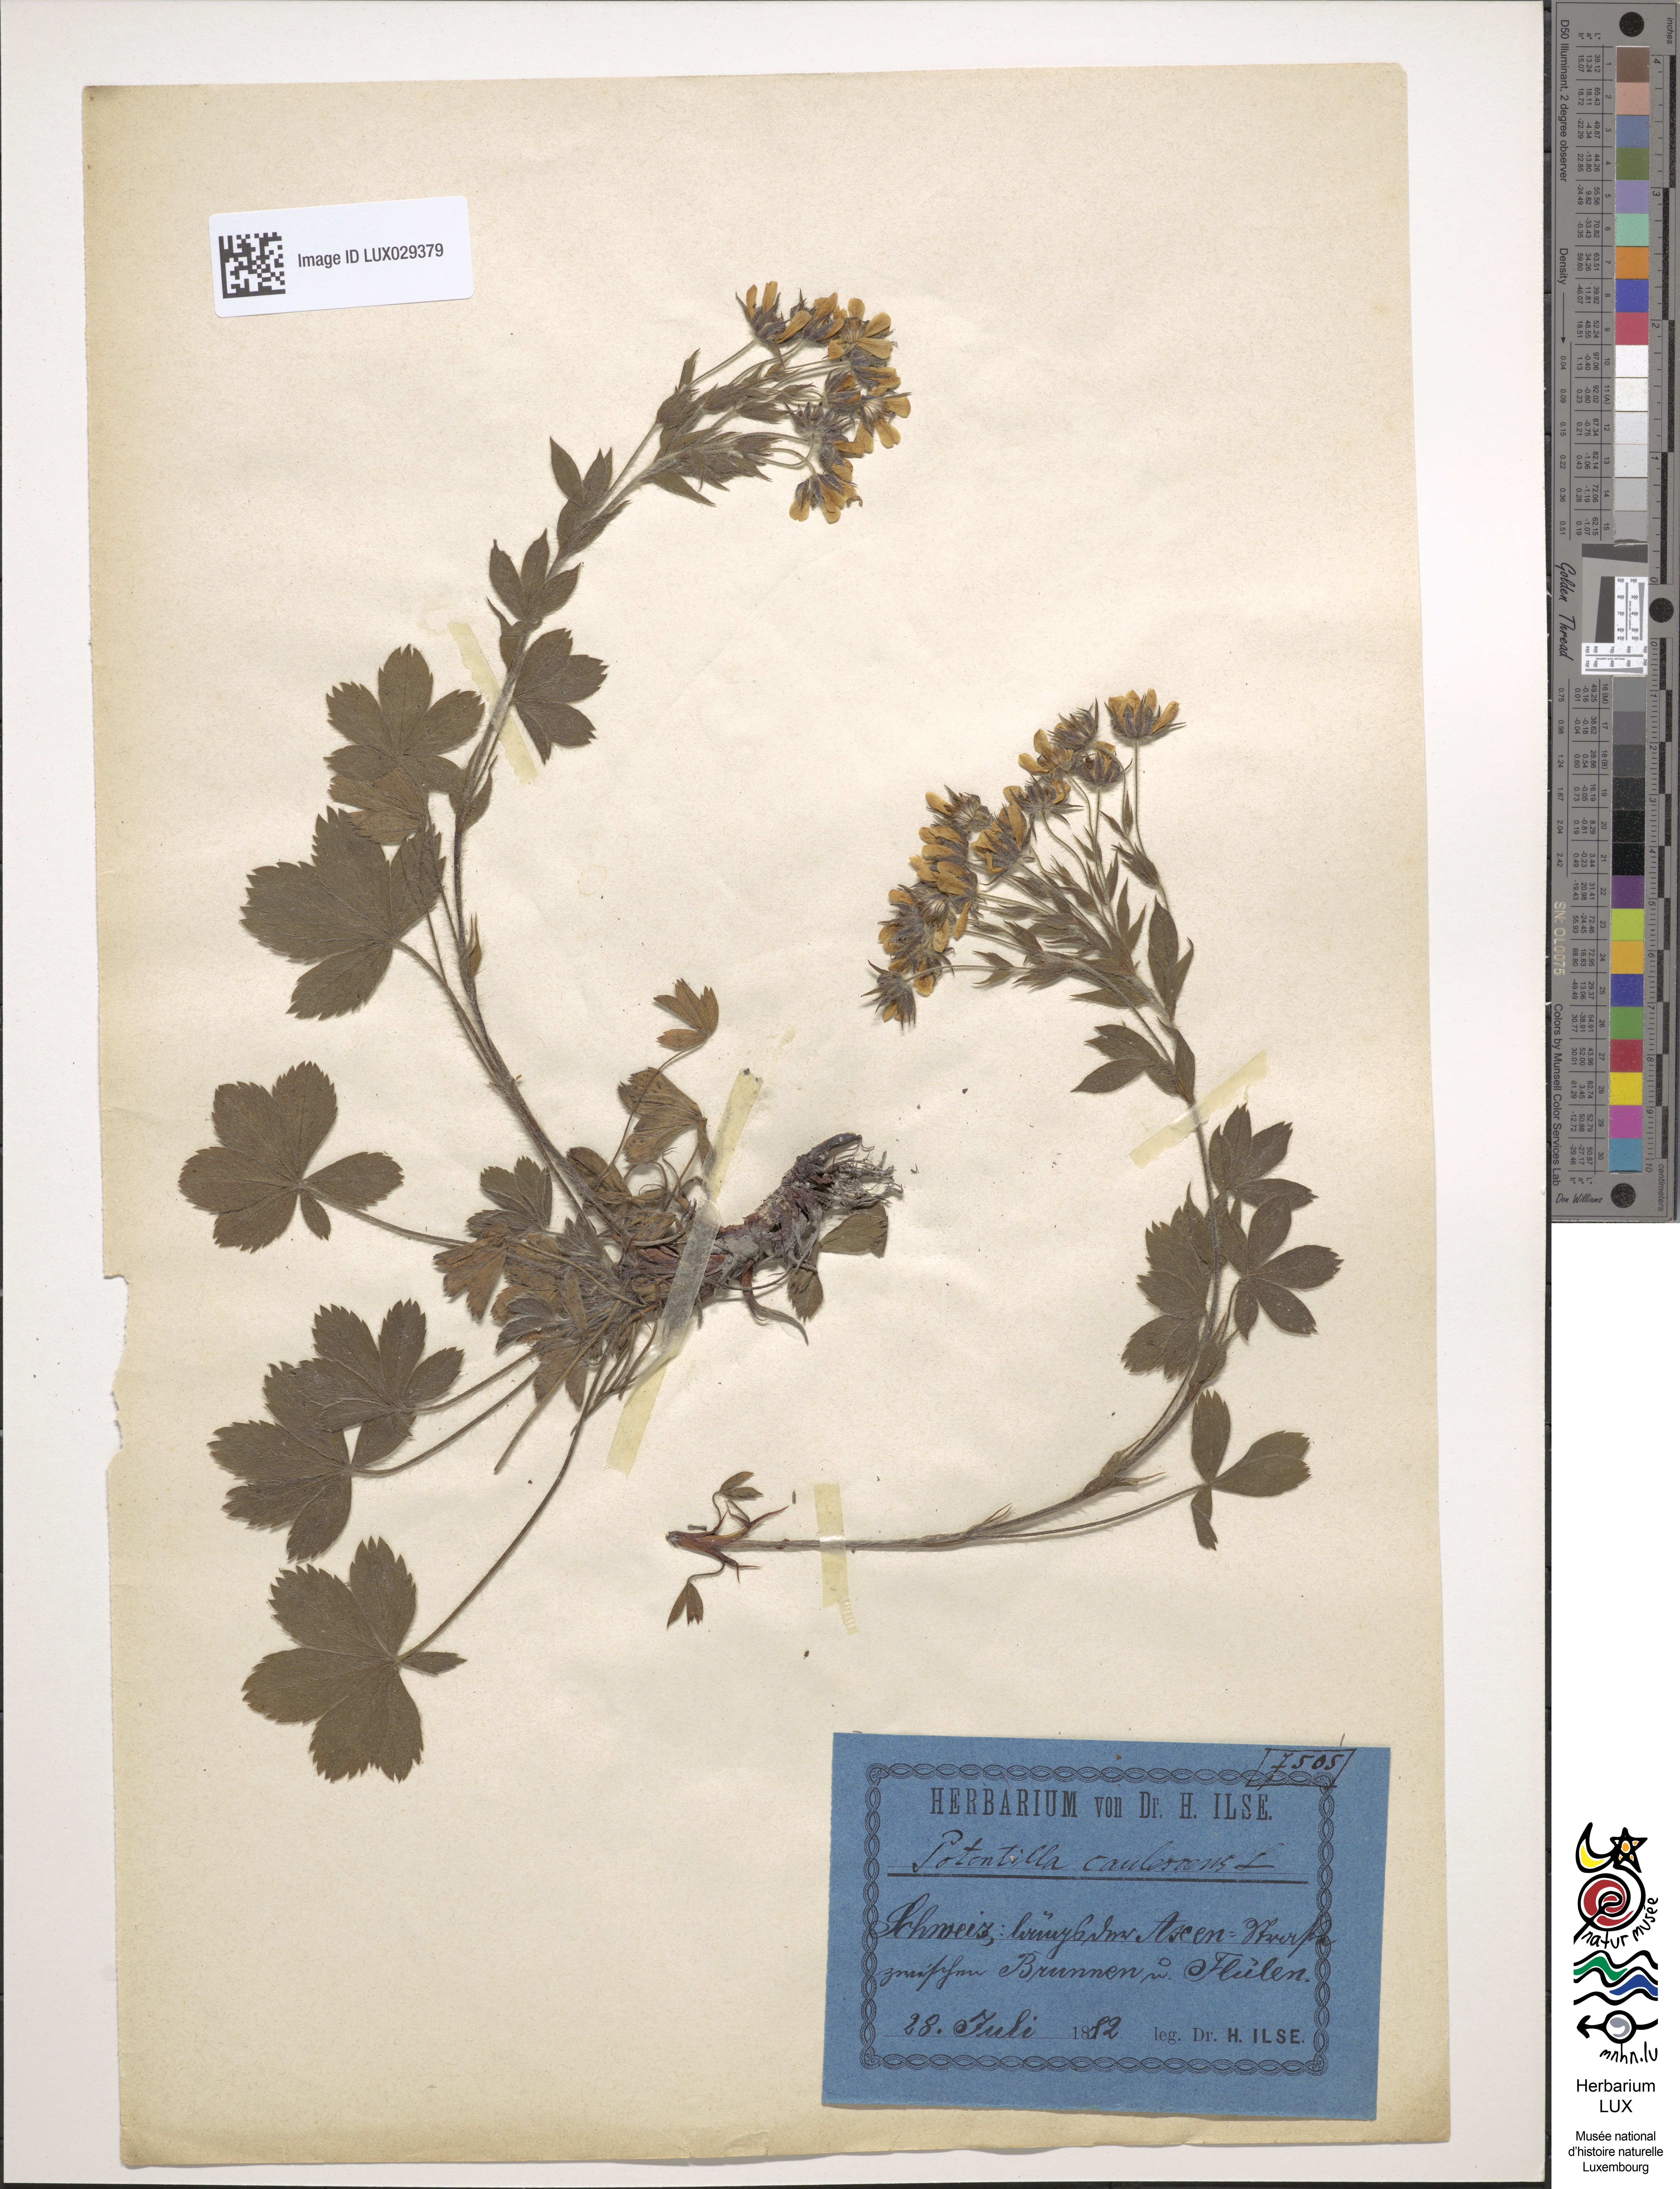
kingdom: Plantae
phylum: Tracheophyta
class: Magnoliopsida
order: Rosales
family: Rosaceae
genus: Potentilla
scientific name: Potentilla caulescens
